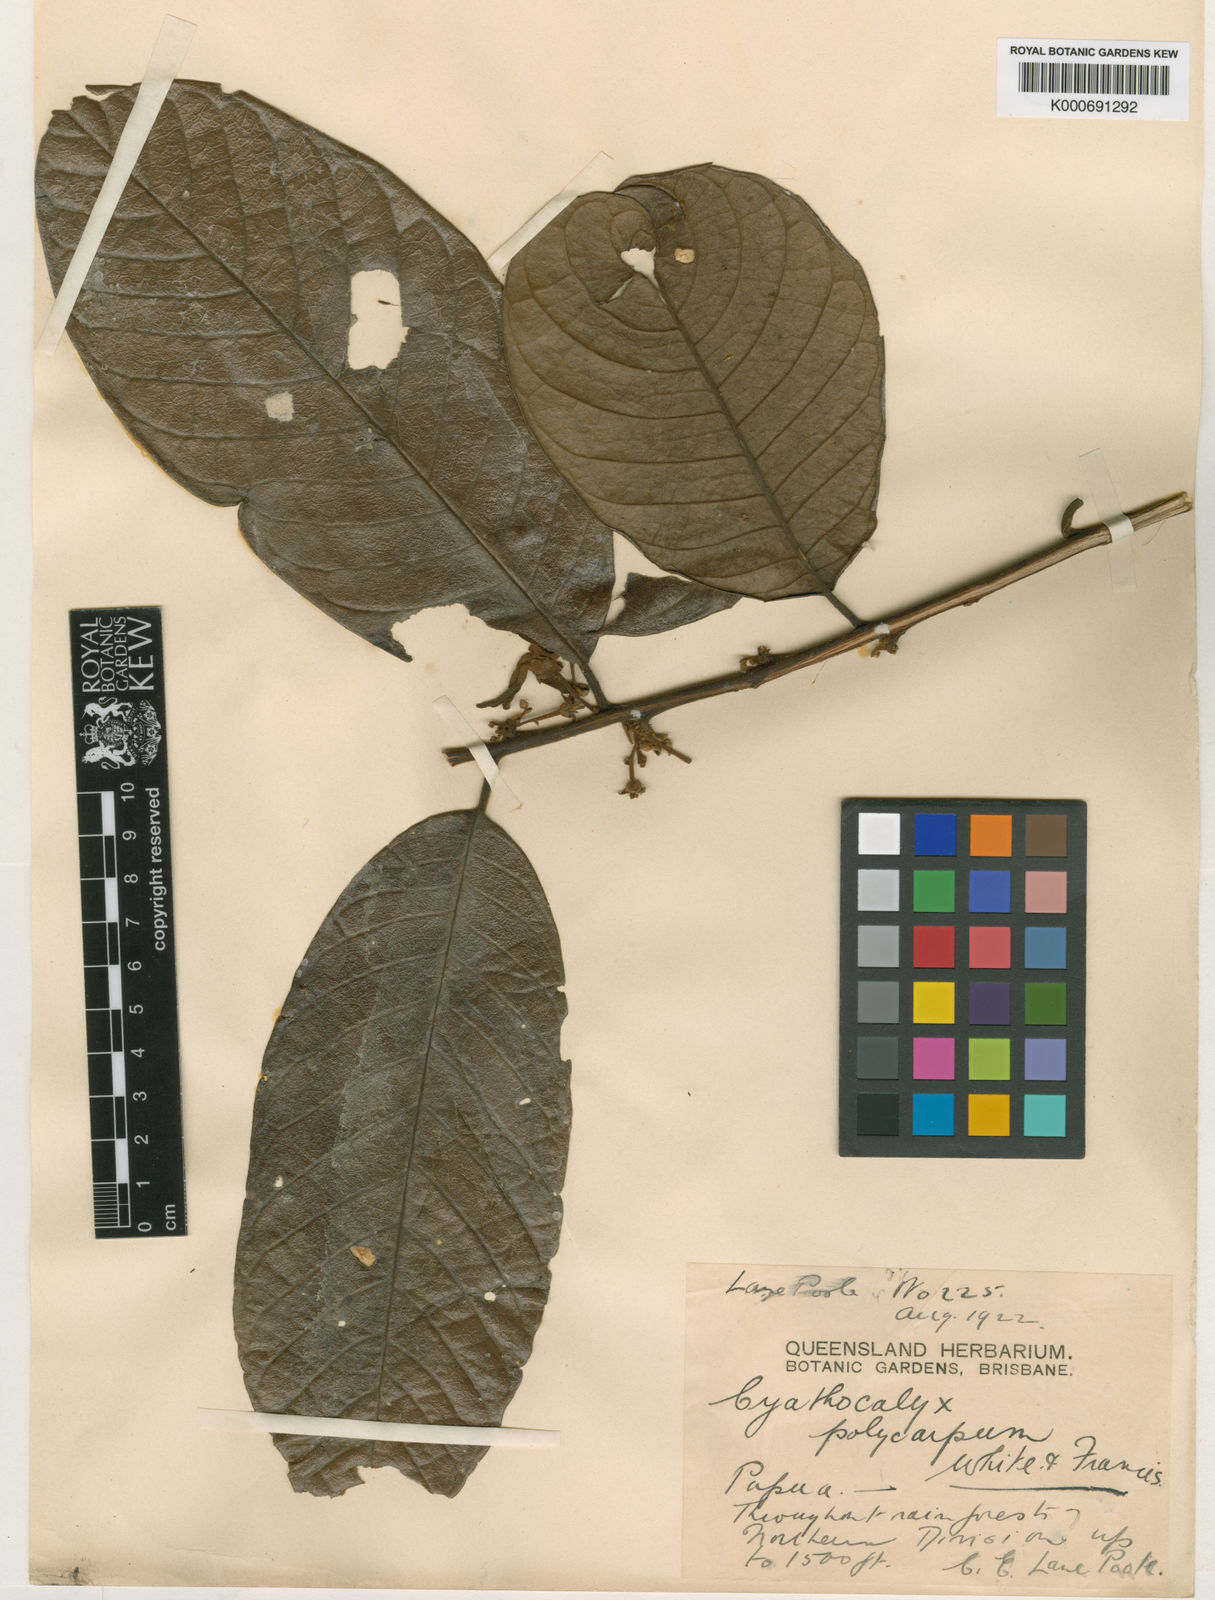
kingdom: Plantae
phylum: Tracheophyta
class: Magnoliopsida
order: Magnoliales
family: Annonaceae
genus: Drepananthus
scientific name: Drepananthus polycarpus
